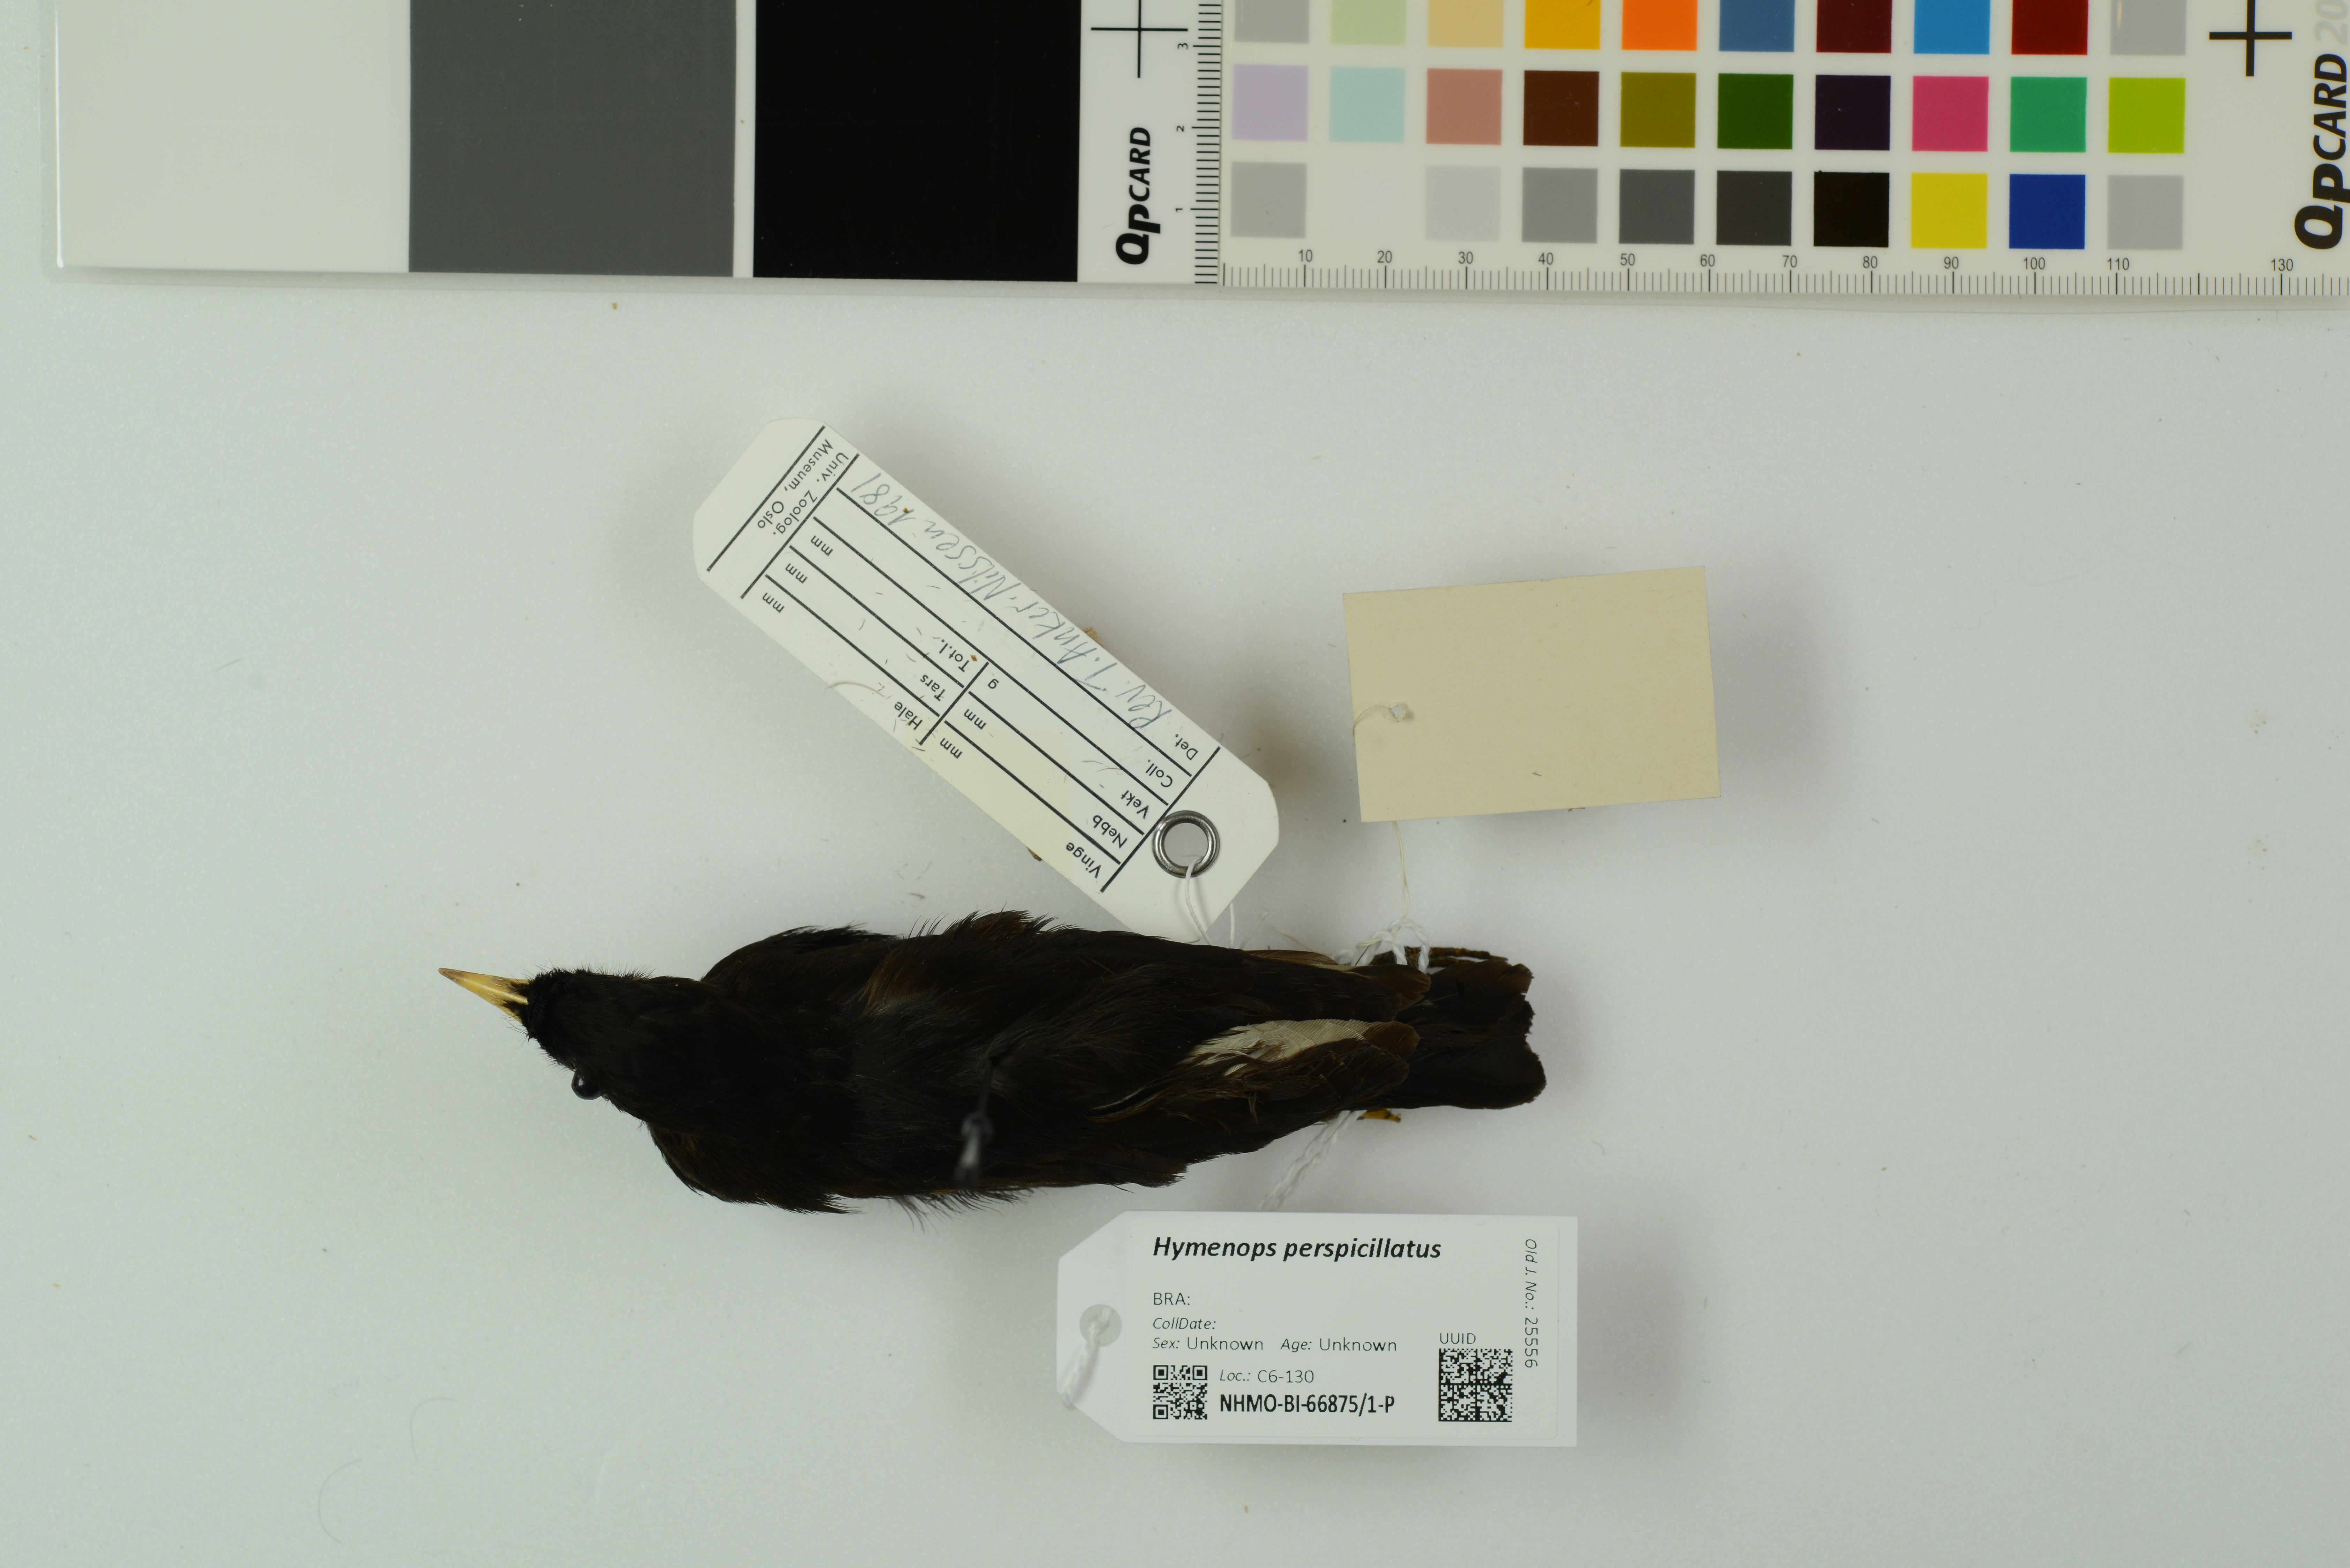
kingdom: Animalia
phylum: Chordata
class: Aves
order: Passeriformes
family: Tyrannidae
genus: Hymenops
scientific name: Hymenops perspicillatus
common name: Spectacled tyrant
